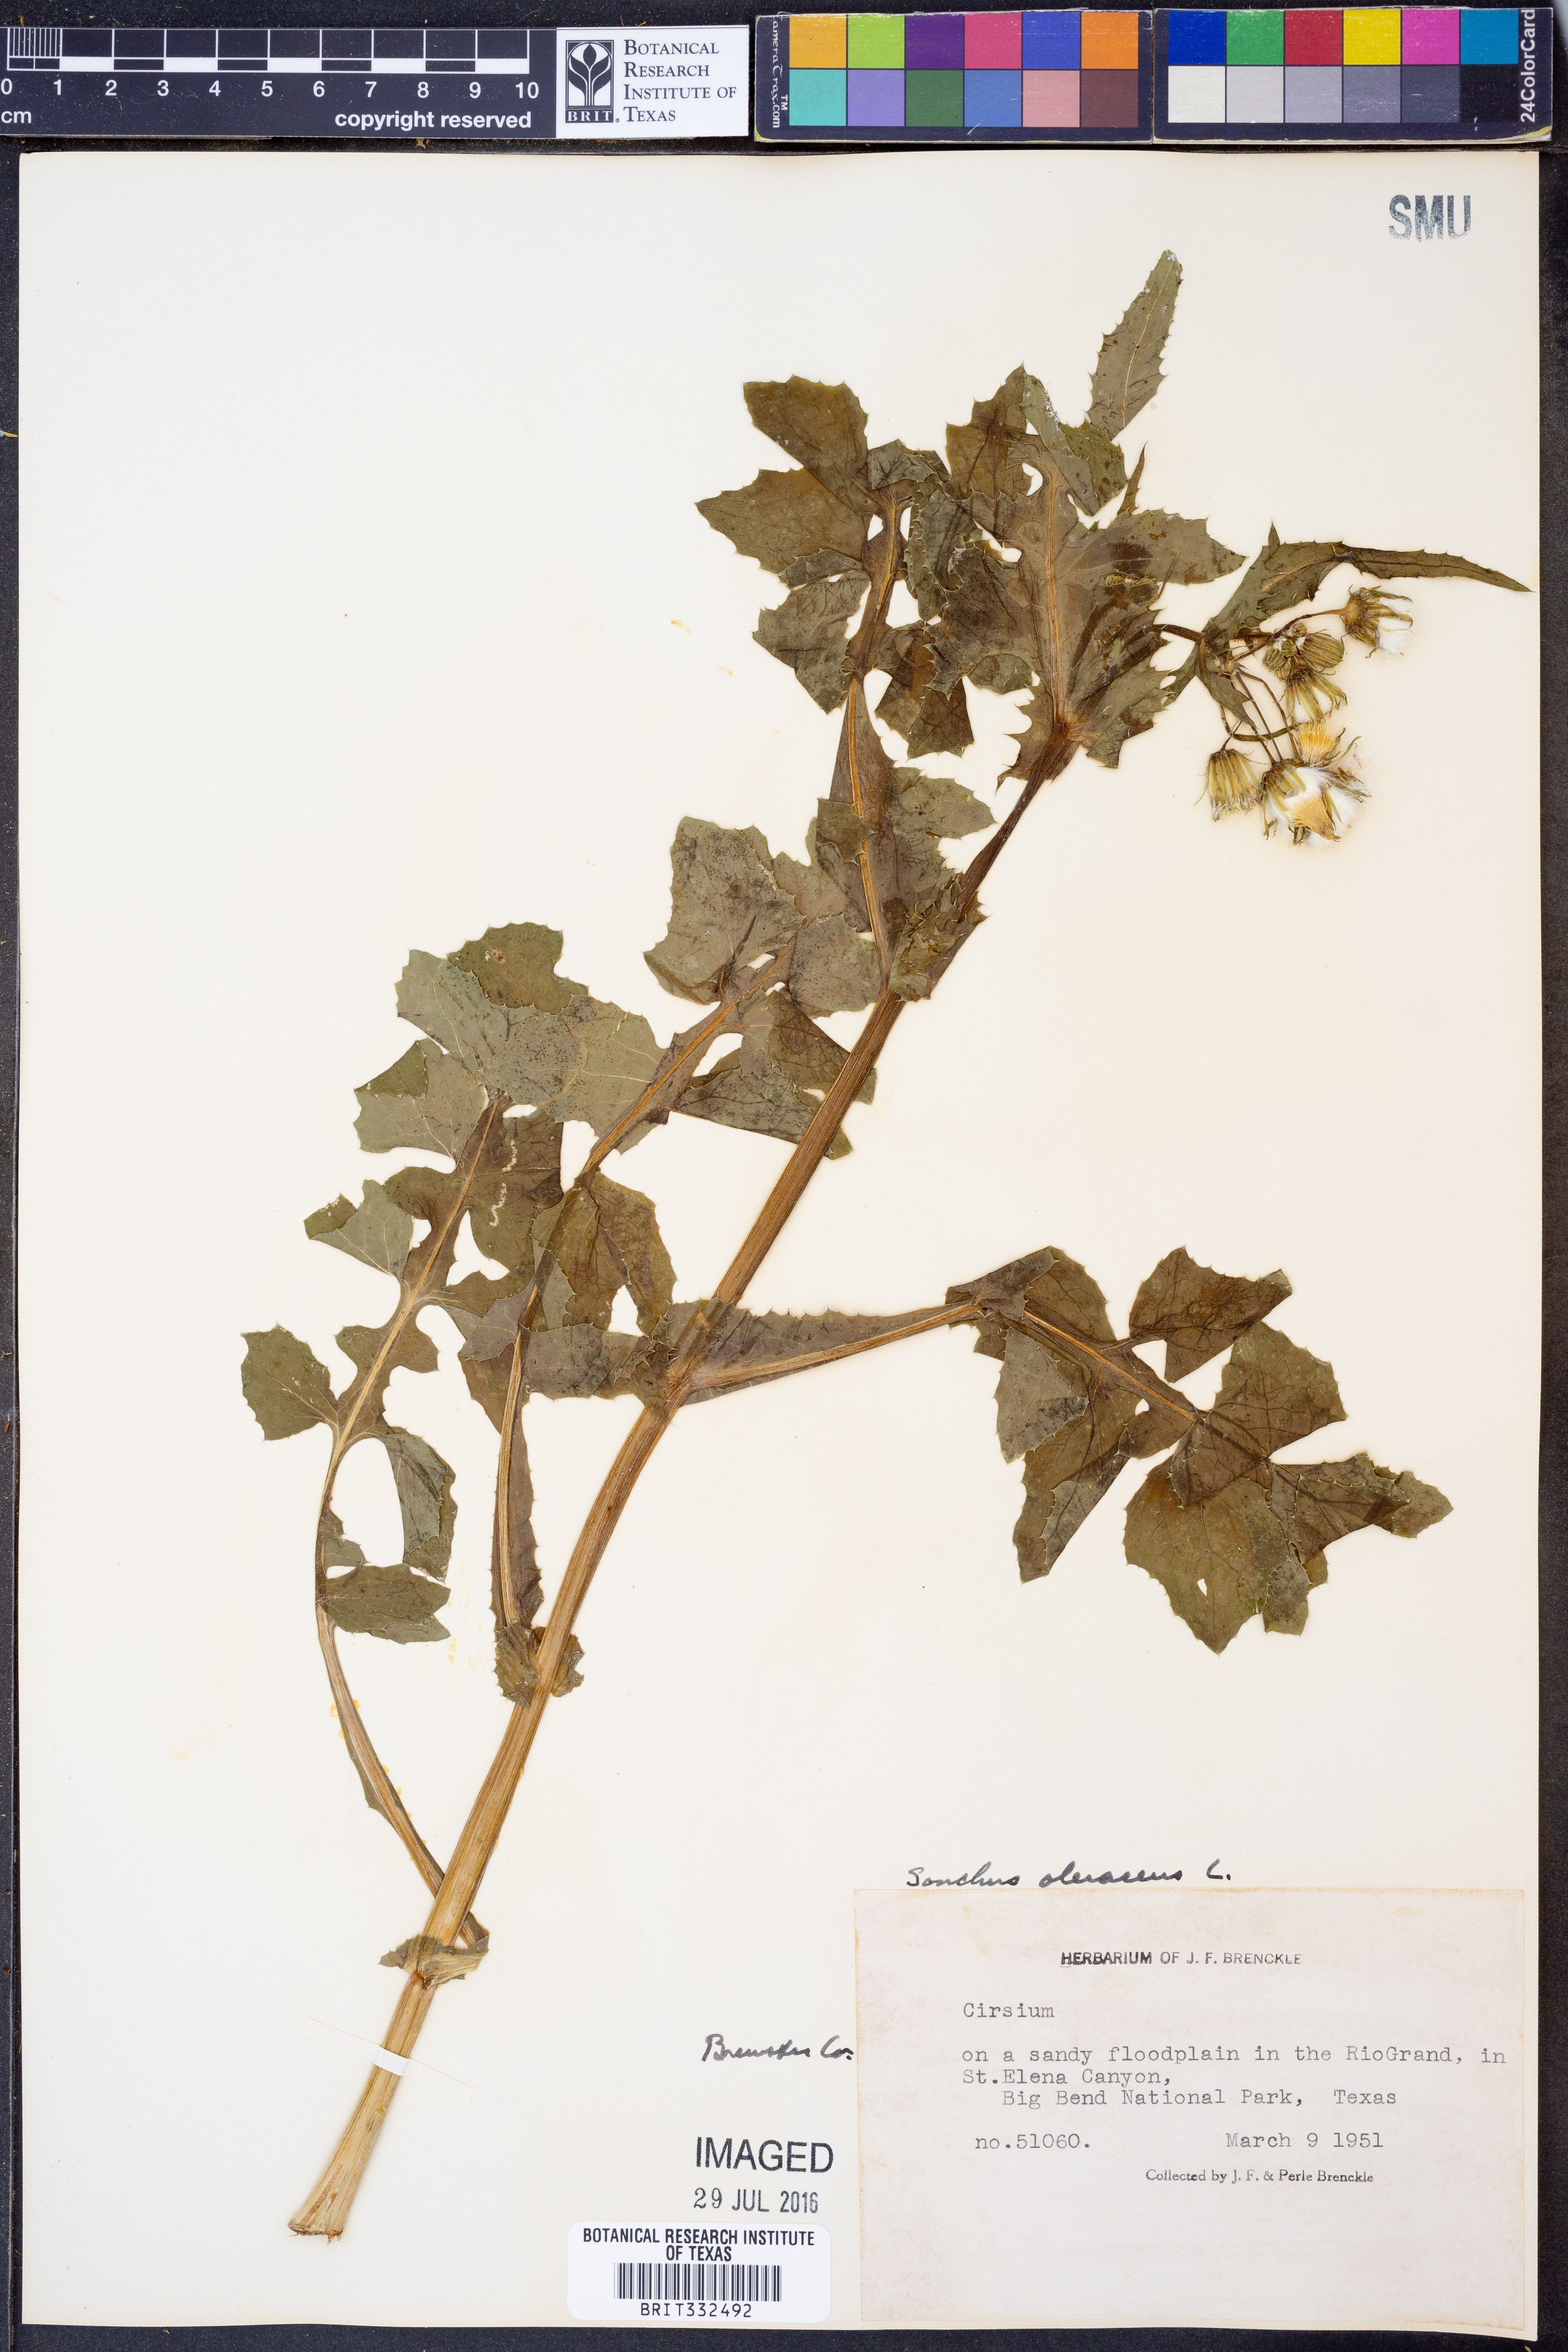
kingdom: Plantae
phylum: Tracheophyta
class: Magnoliopsida
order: Asterales
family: Asteraceae
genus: Sonchus
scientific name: Sonchus oleraceus
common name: Common sowthistle
